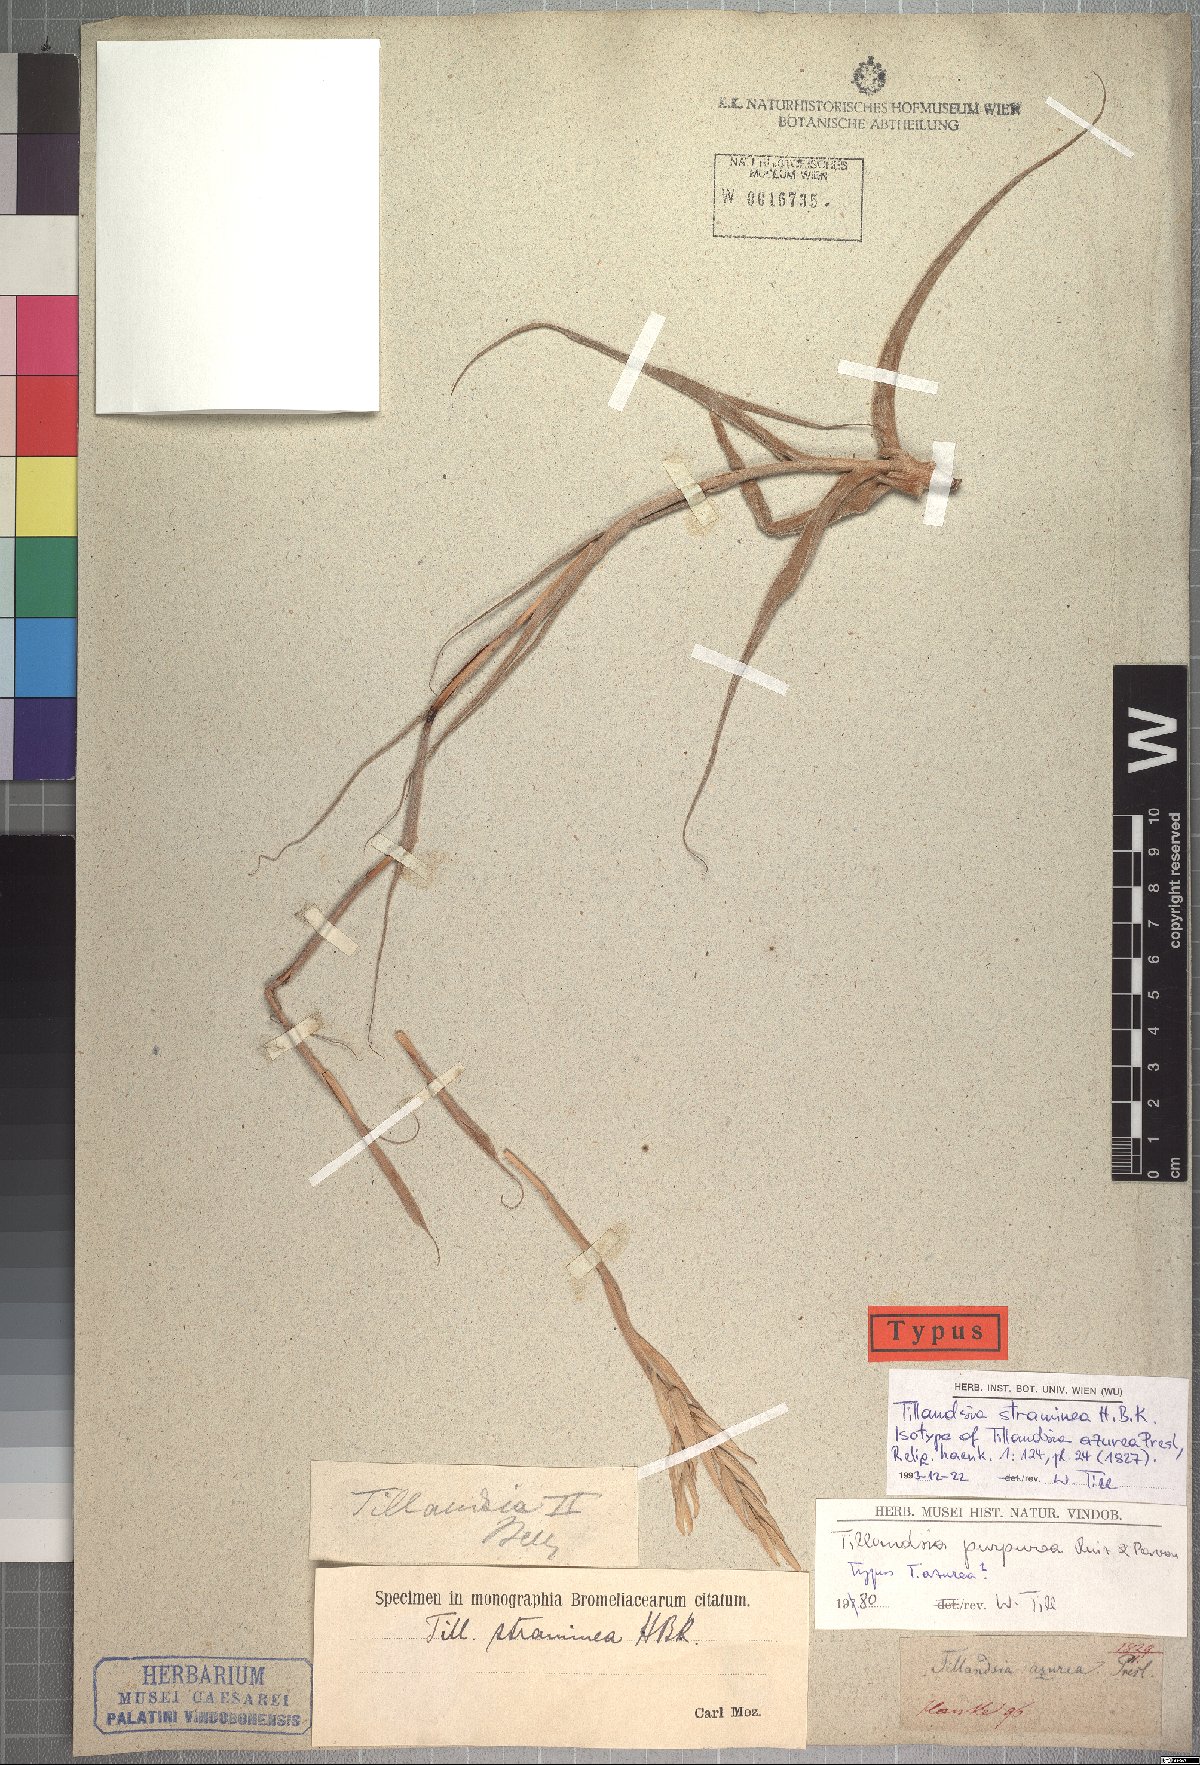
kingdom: Plantae
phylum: Tracheophyta
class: Liliopsida
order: Poales
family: Bromeliaceae
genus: Tillandsia
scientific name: Tillandsia straminea
